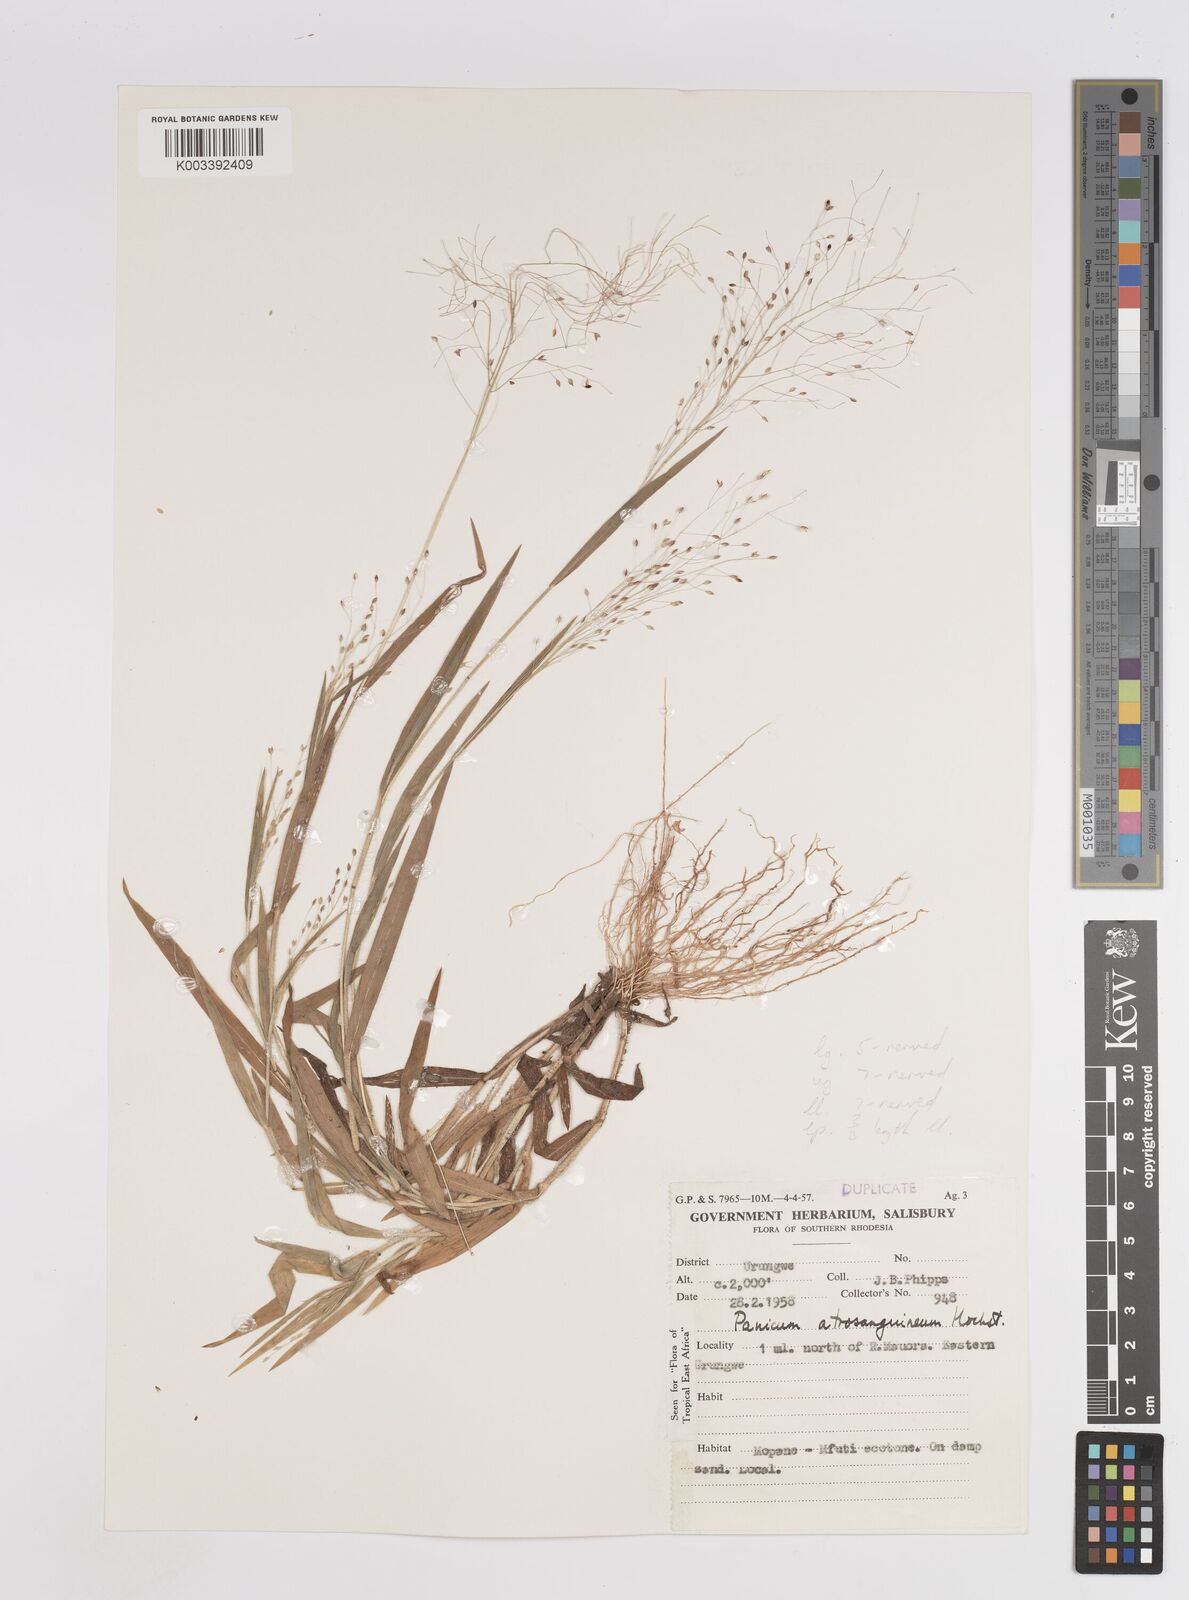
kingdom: Plantae
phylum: Tracheophyta
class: Liliopsida
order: Poales
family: Poaceae
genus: Panicum
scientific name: Panicum atrosanguineum
